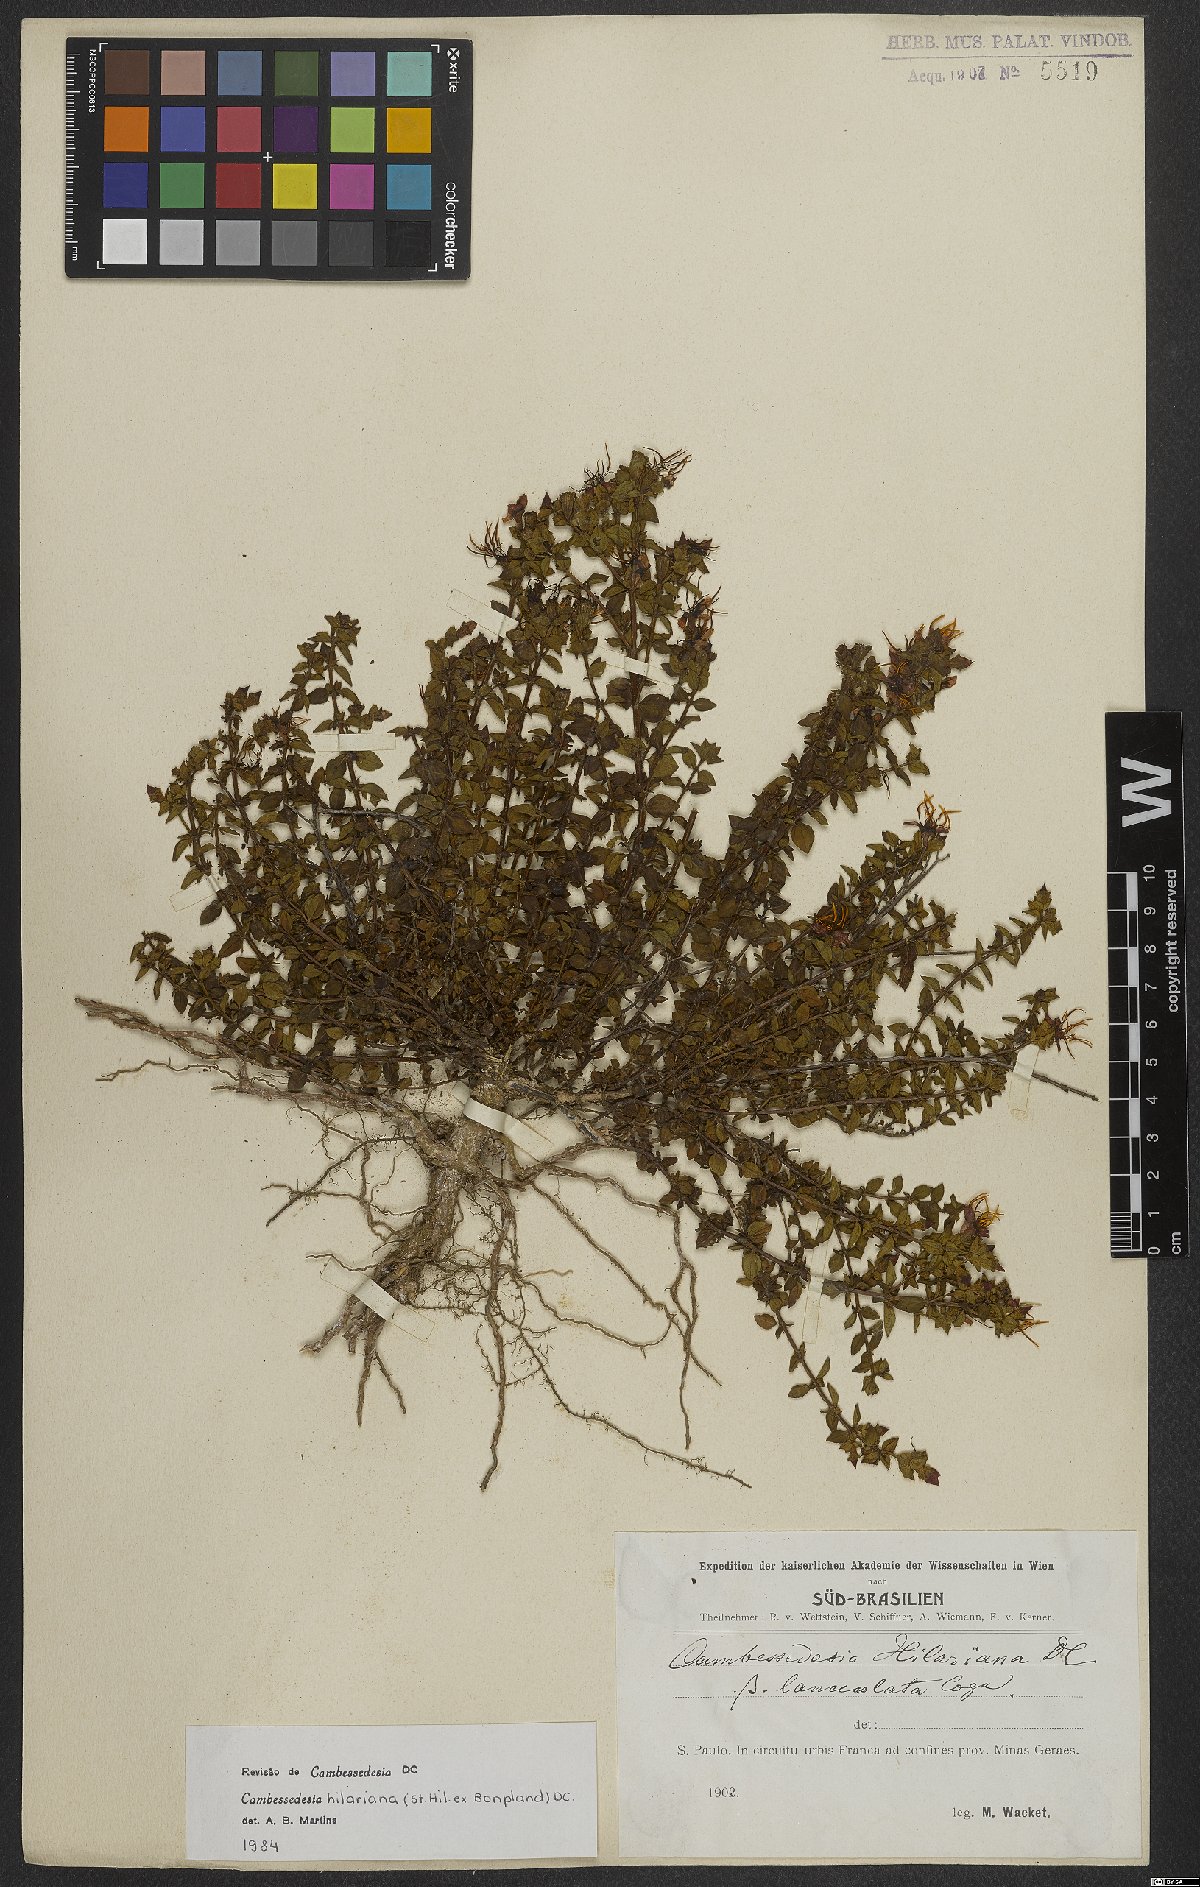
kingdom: Plantae
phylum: Tracheophyta
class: Magnoliopsida
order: Myrtales
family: Melastomataceae
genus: Cambessedesia
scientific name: Cambessedesia hilariana
